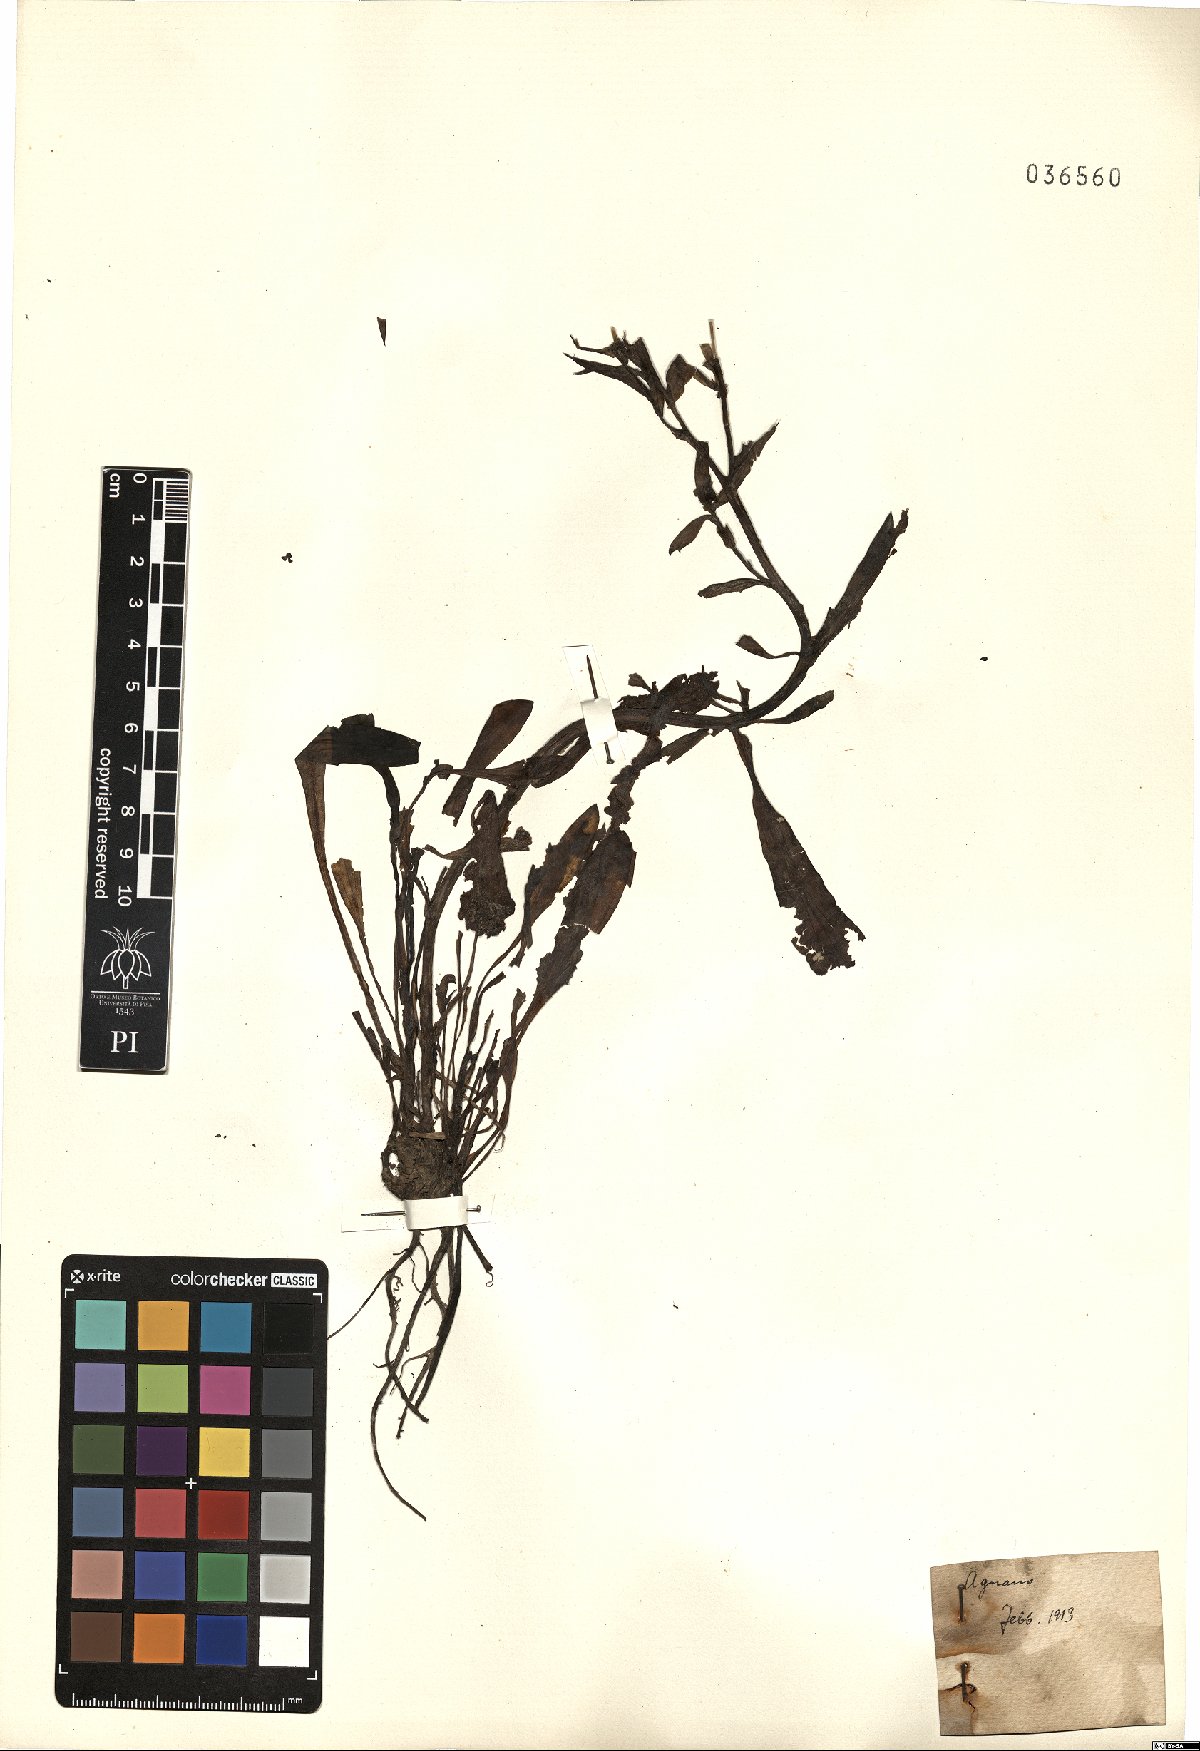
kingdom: Plantae
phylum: Tracheophyta
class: Magnoliopsida
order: Asterales
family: Asteraceae
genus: Aster
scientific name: Aster
